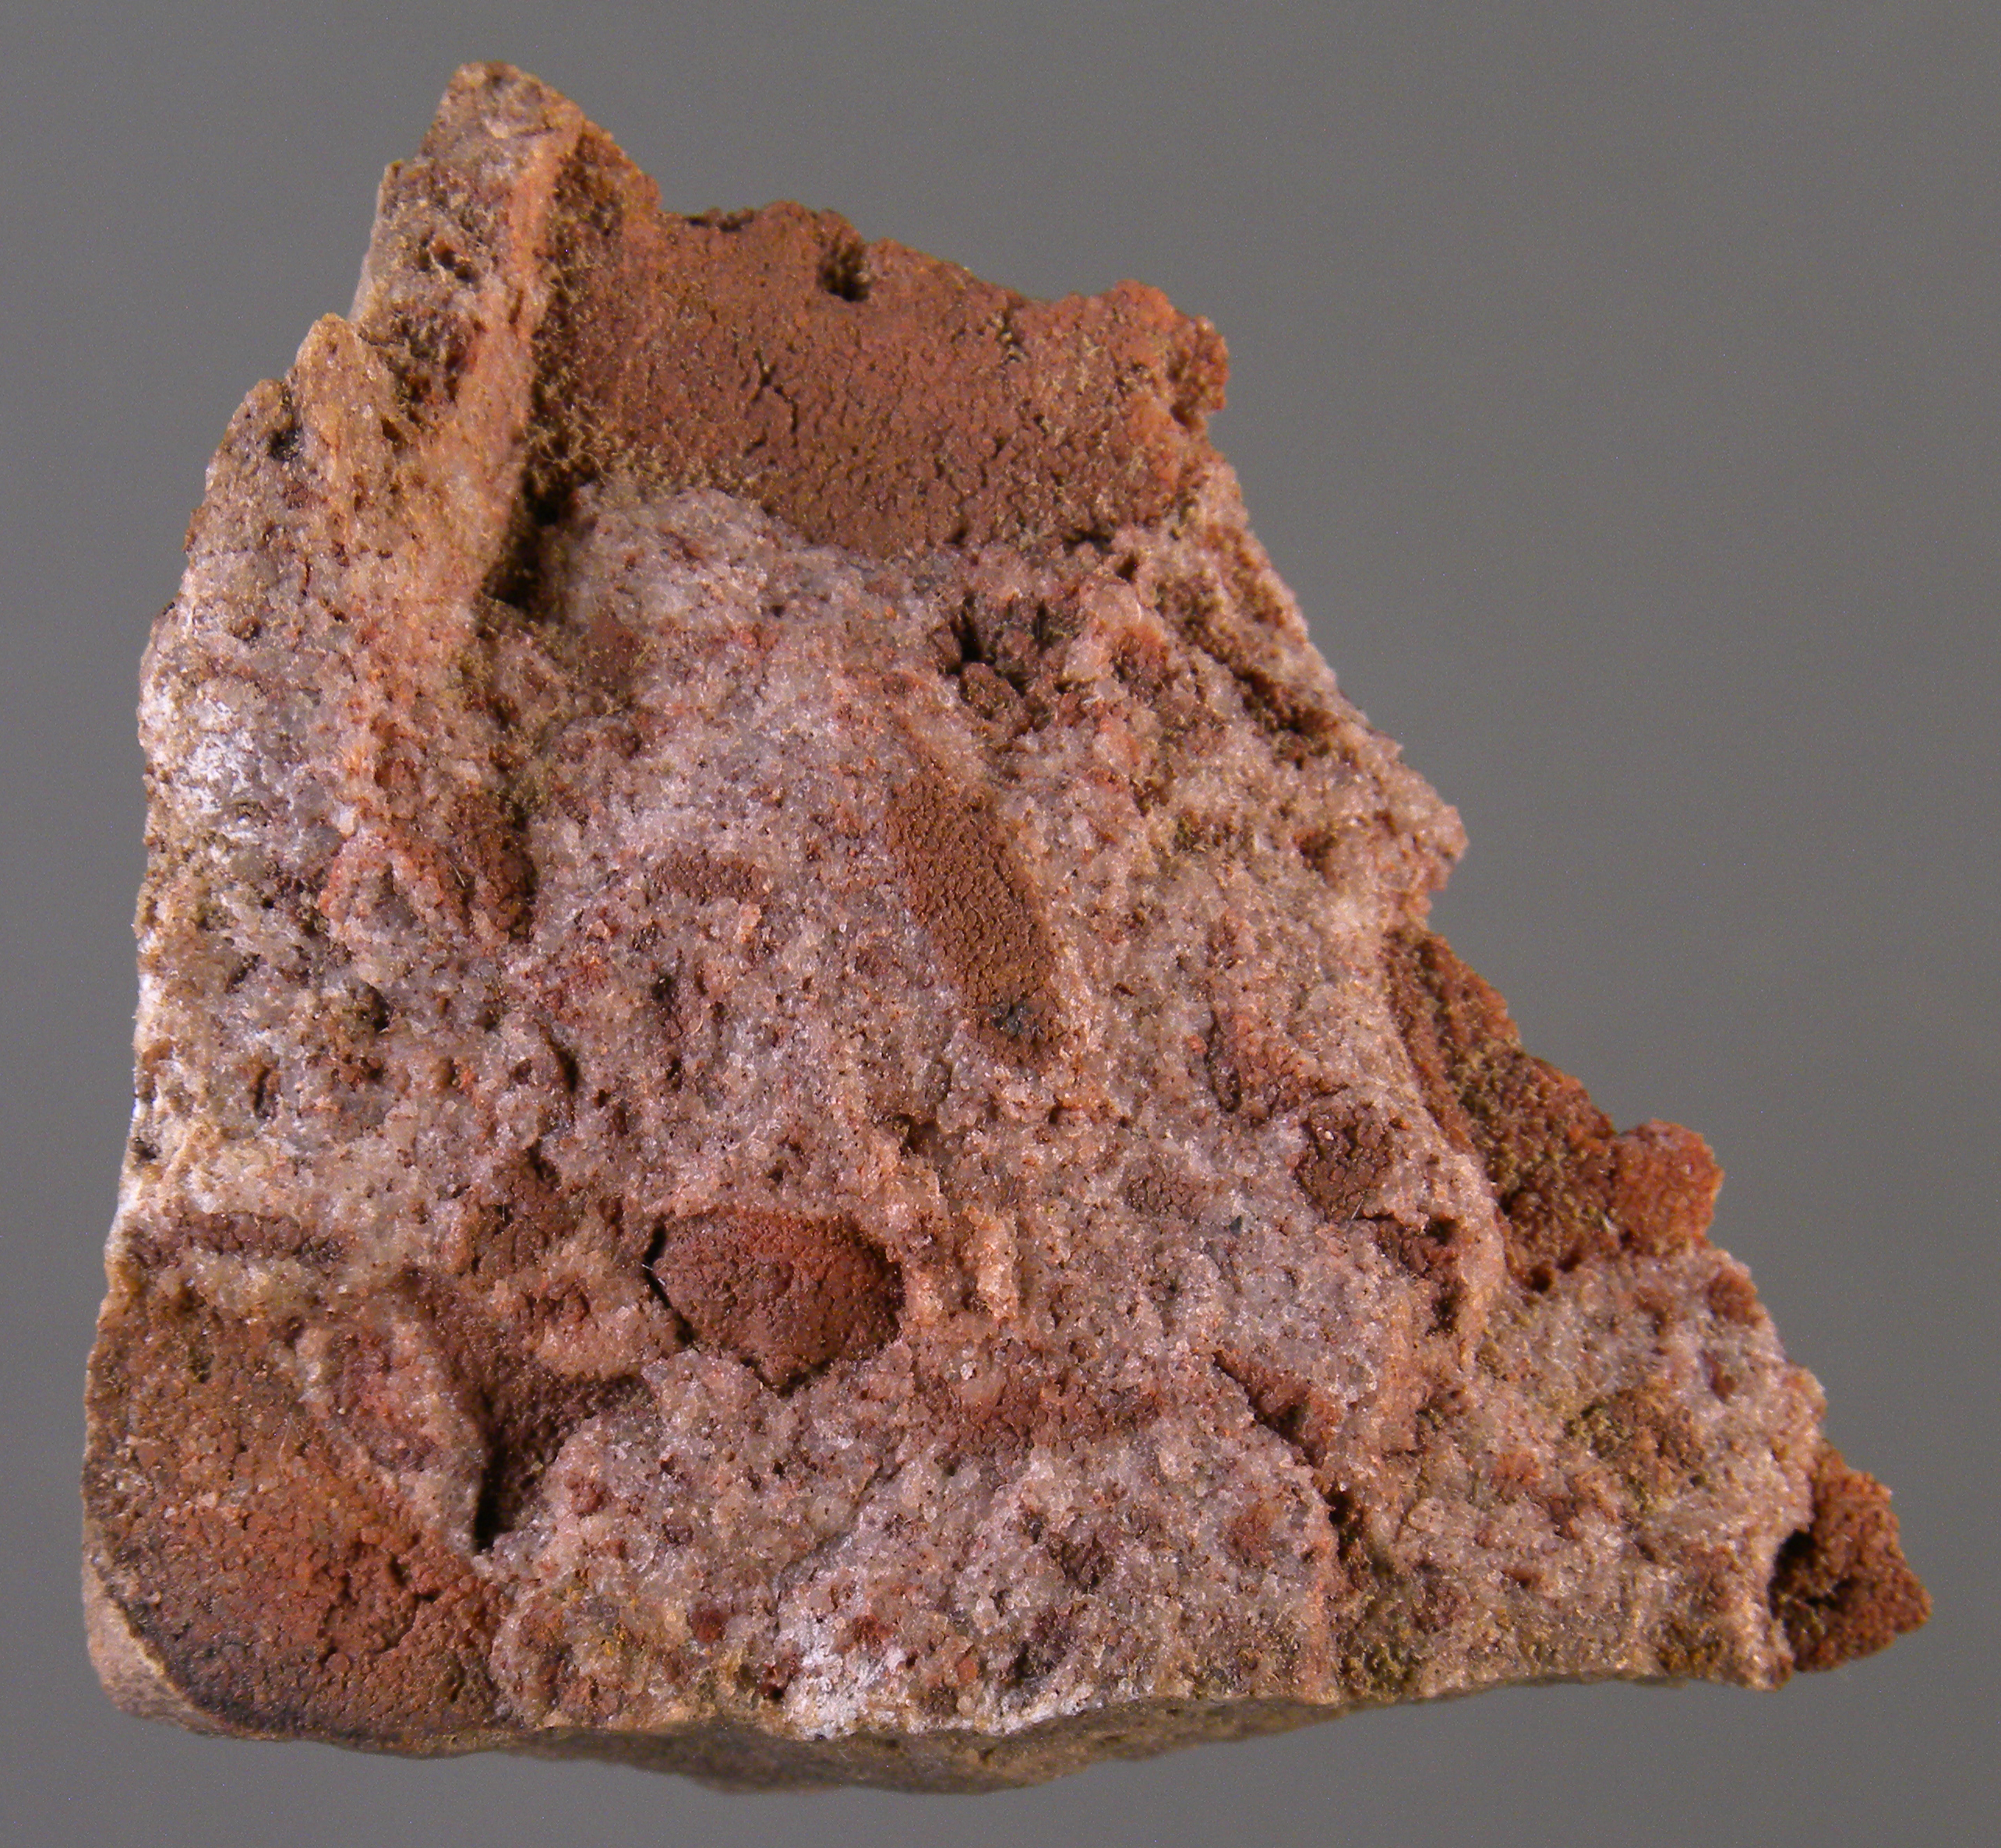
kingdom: Animalia
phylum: Arthropoda
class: Trilobita
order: Phacopida
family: Acastidae
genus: Acastava
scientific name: Acastava
